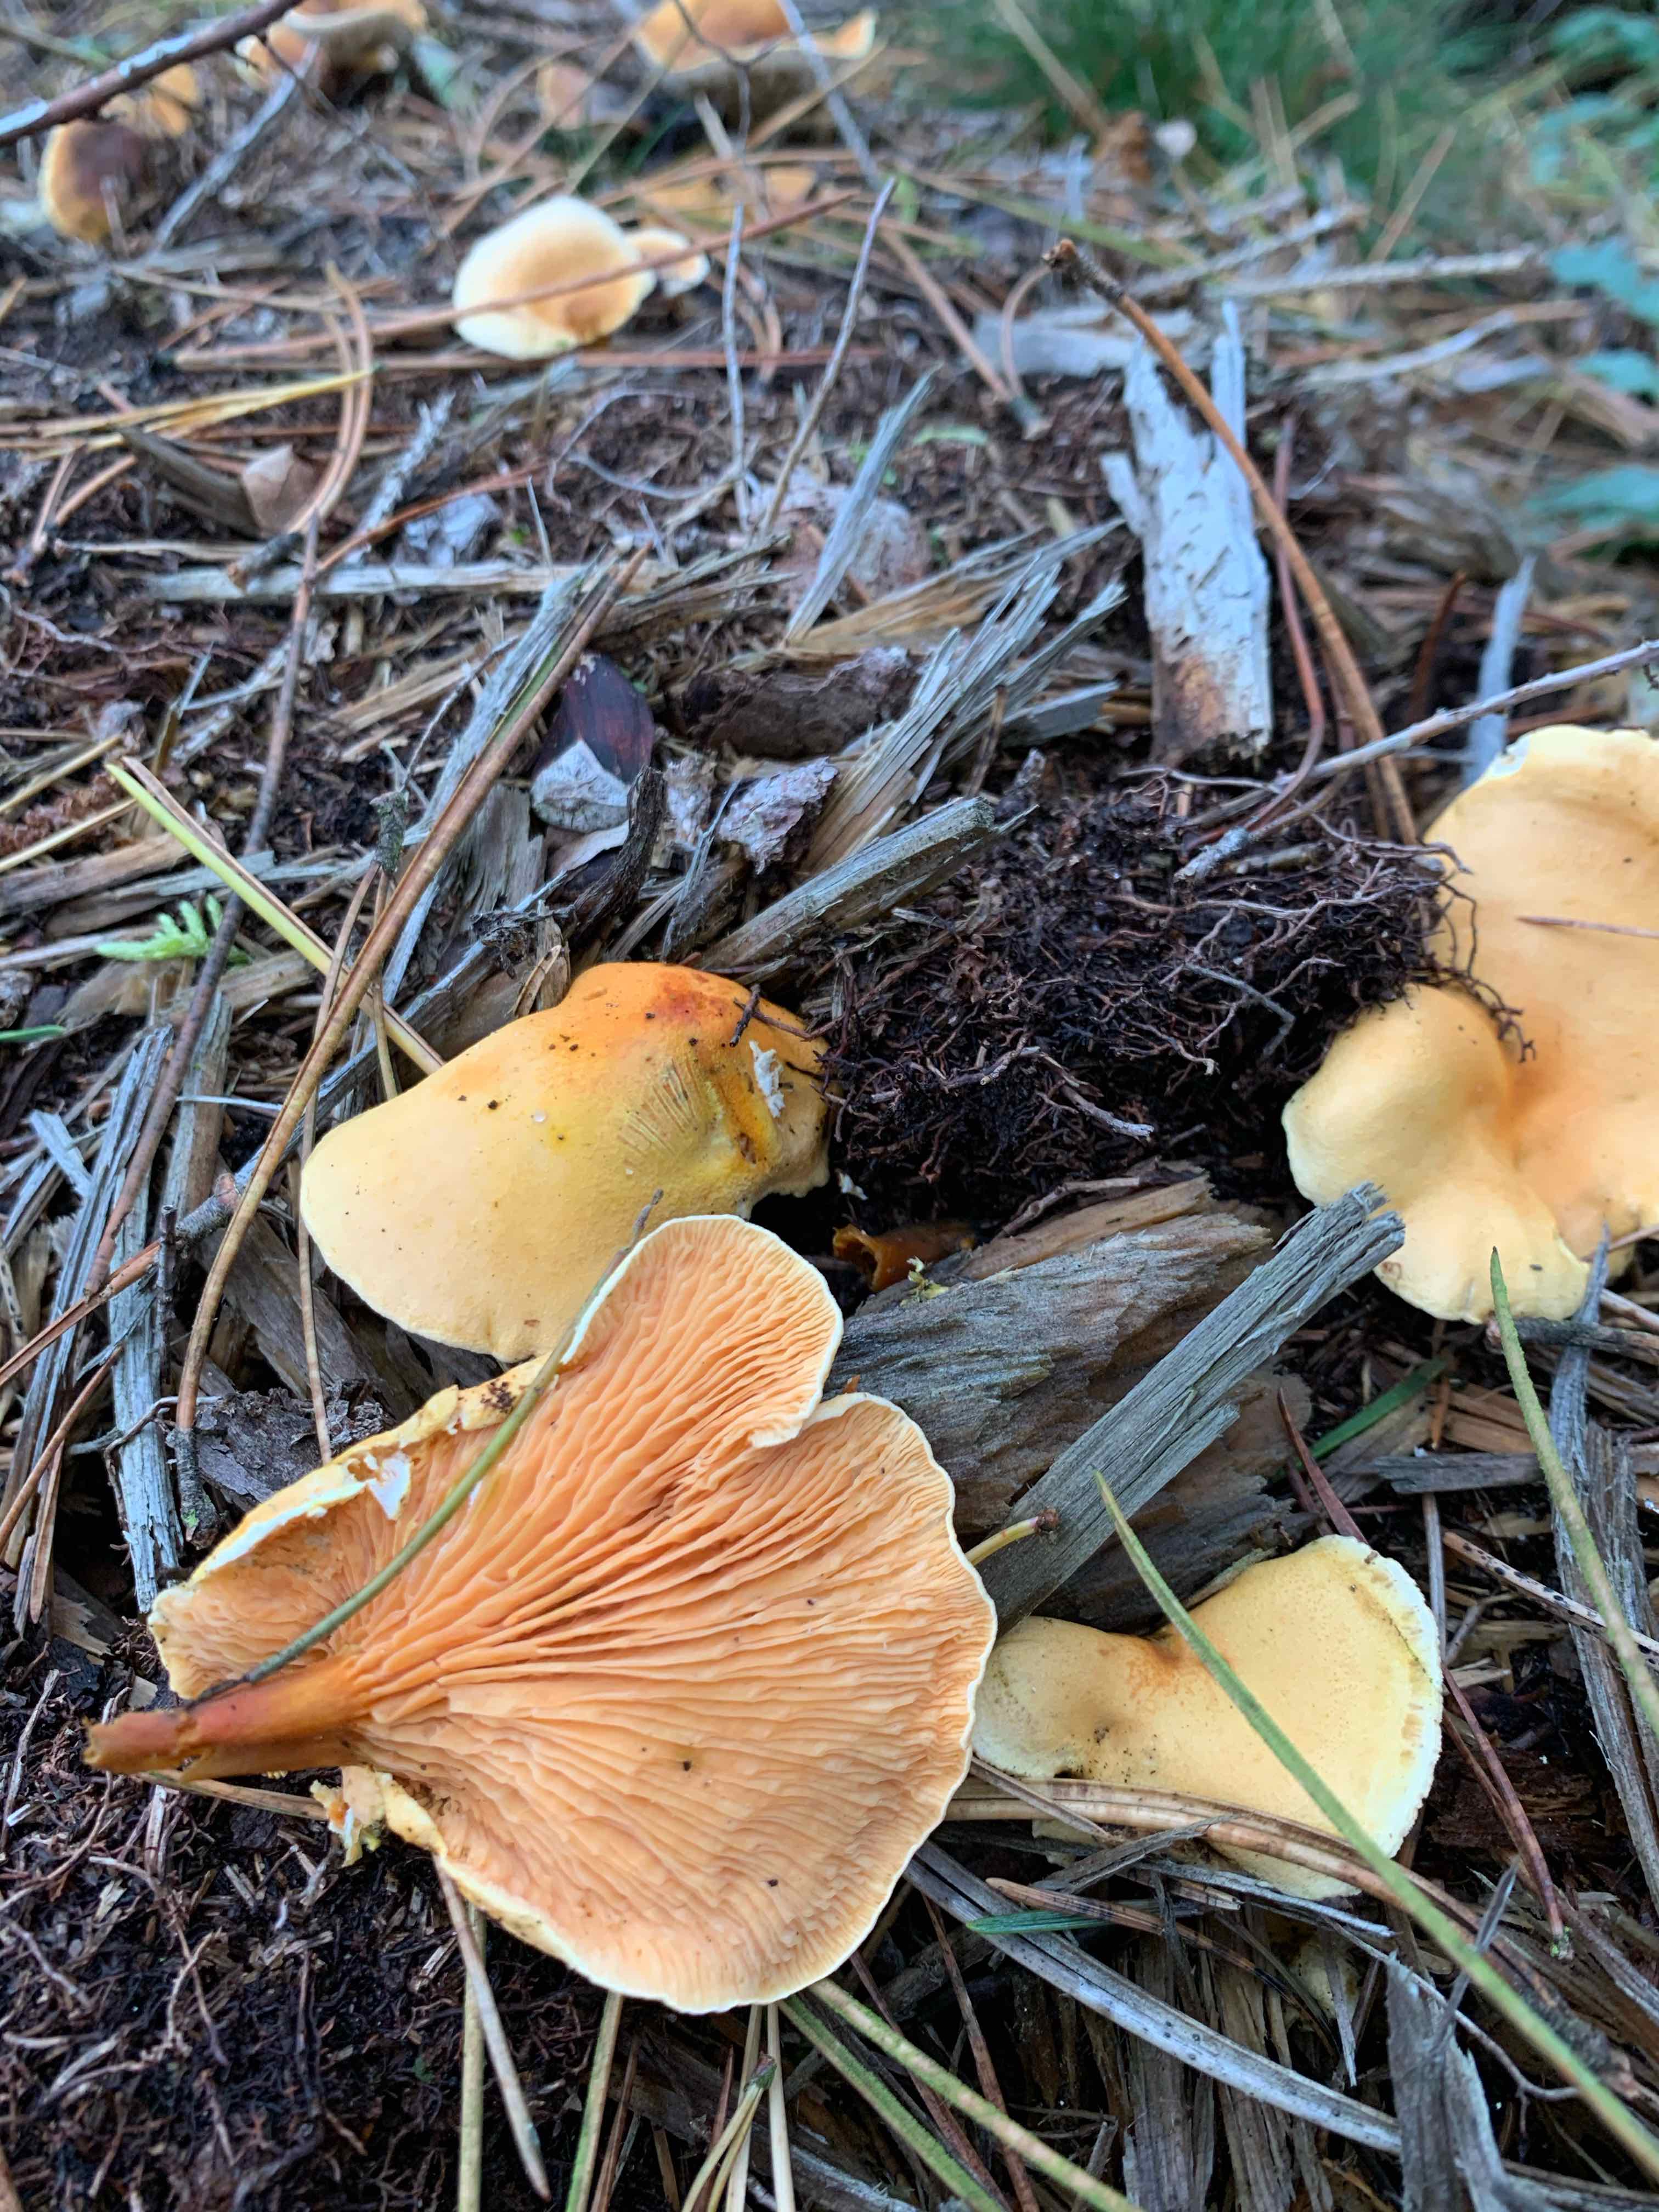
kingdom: Fungi
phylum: Basidiomycota
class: Agaricomycetes
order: Boletales
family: Hygrophoropsidaceae
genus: Hygrophoropsis
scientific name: Hygrophoropsis aurantiaca
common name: almindelig orangekantarel
